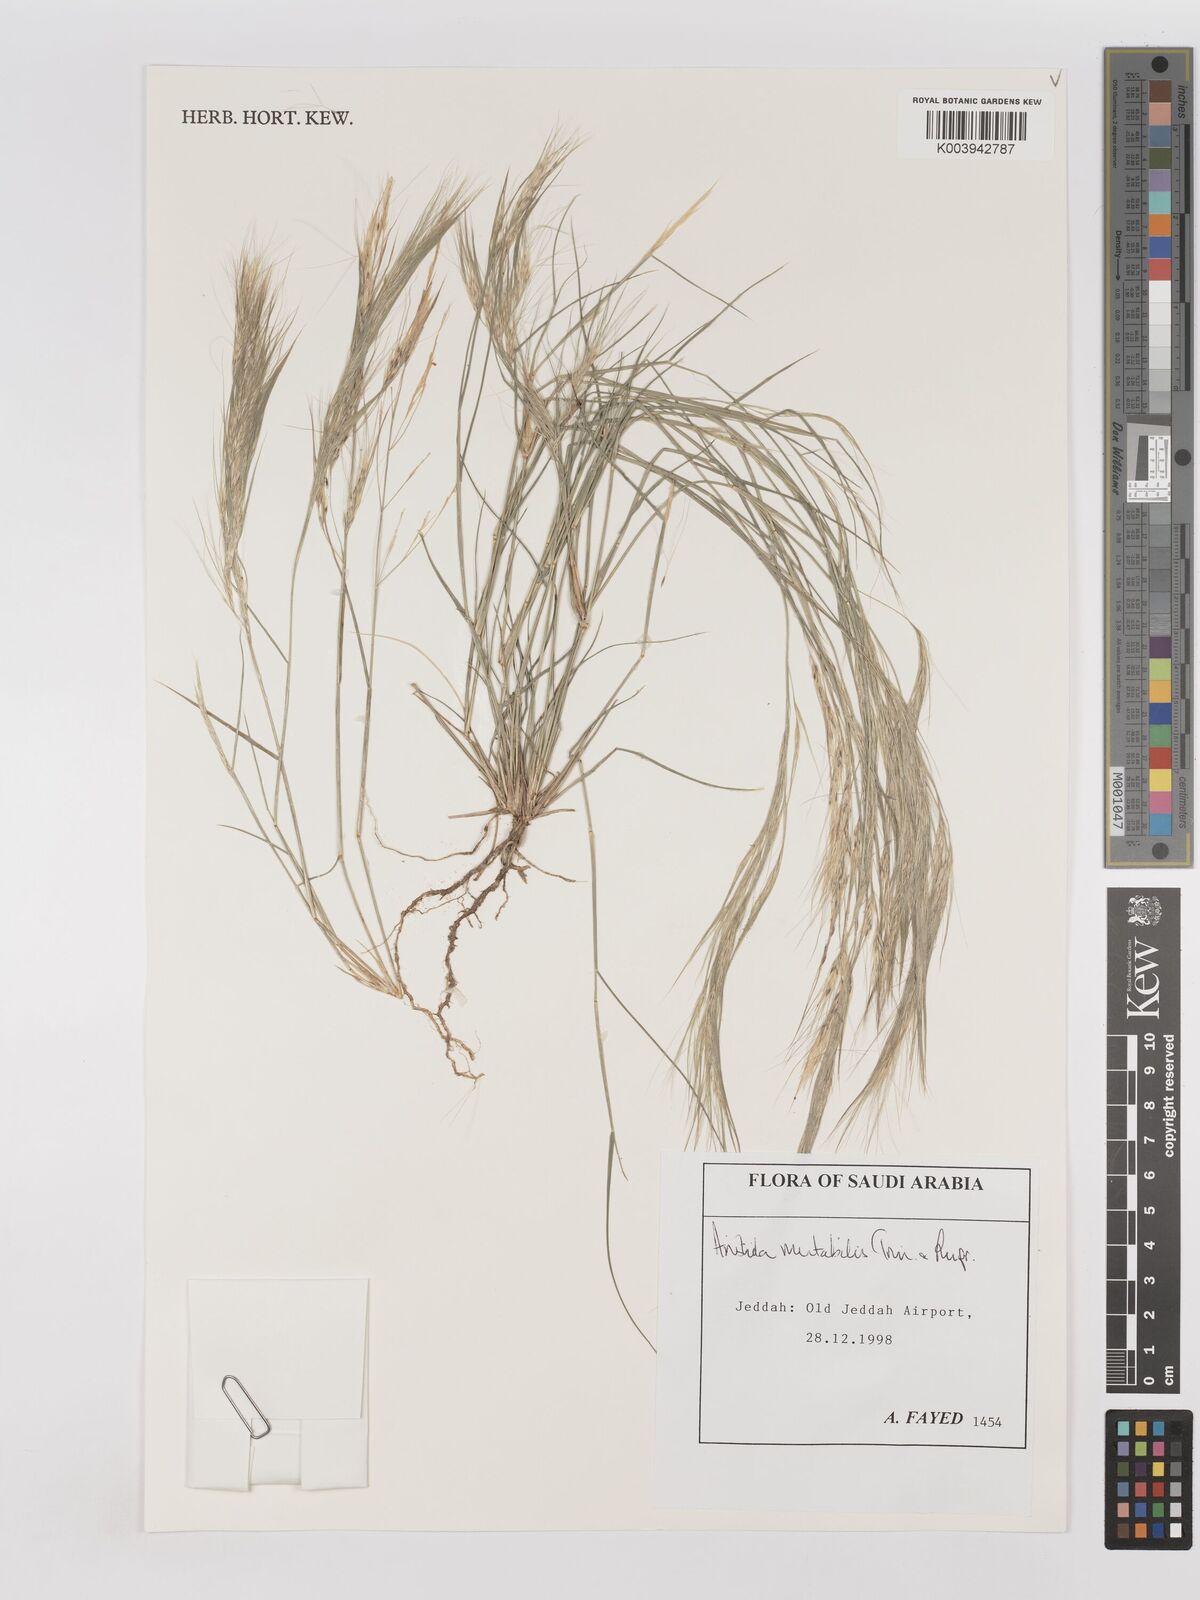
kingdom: Plantae
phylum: Tracheophyta
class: Liliopsida
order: Poales
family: Poaceae
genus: Aristida
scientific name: Aristida mutabilis
